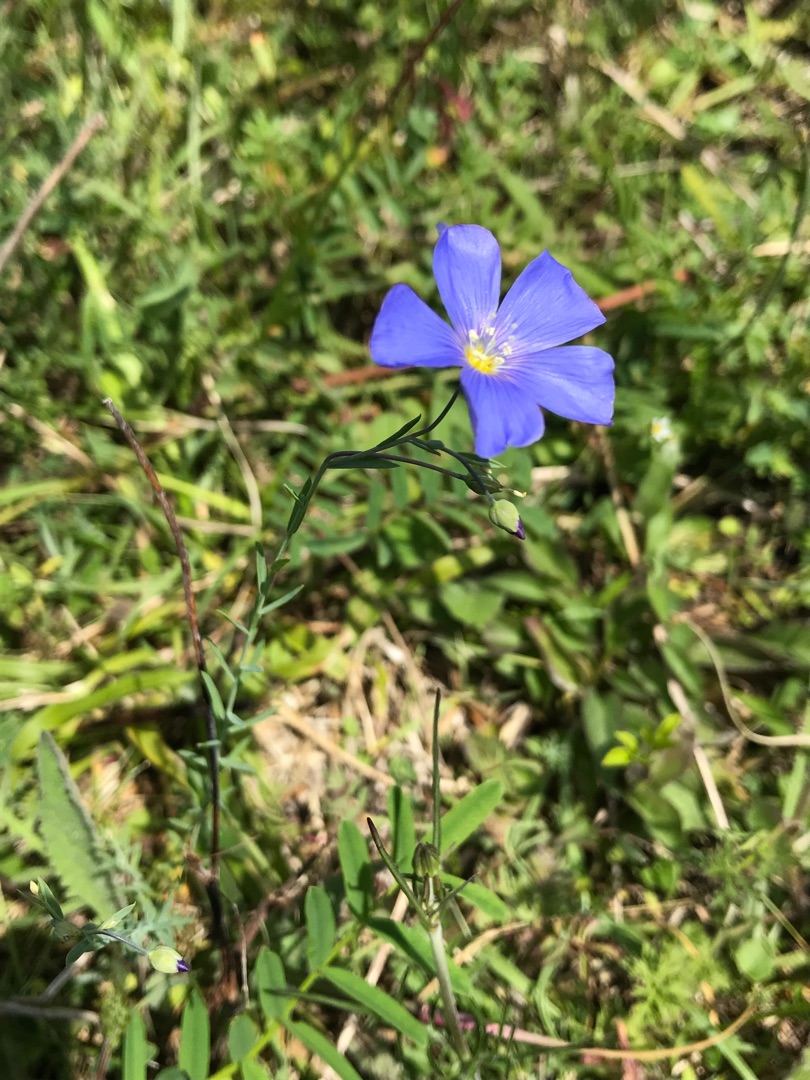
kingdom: Plantae
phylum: Tracheophyta
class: Magnoliopsida
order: Malpighiales
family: Linaceae
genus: Linum
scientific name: Linum austriacum
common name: Østrigsk hør
